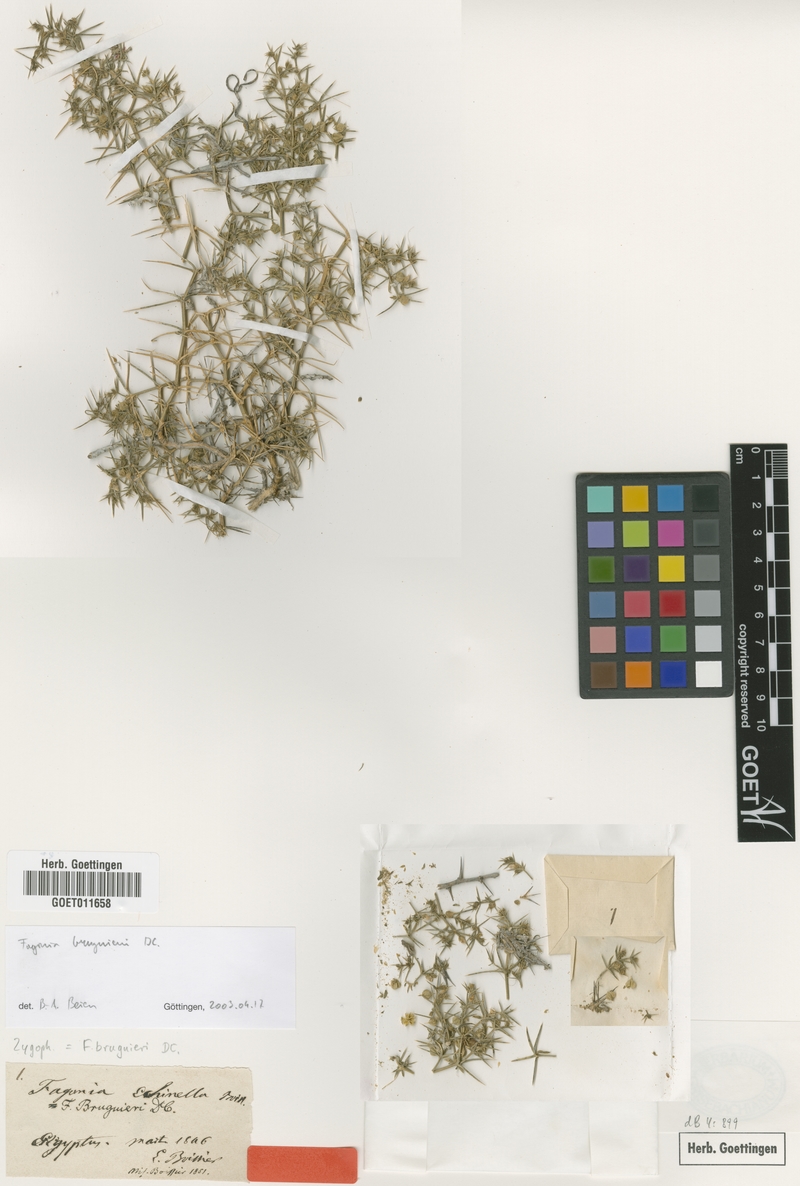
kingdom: Plantae
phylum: Tracheophyta
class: Magnoliopsida
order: Zygophyllales
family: Zygophyllaceae
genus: Fagonia
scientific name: Fagonia bruguieri
